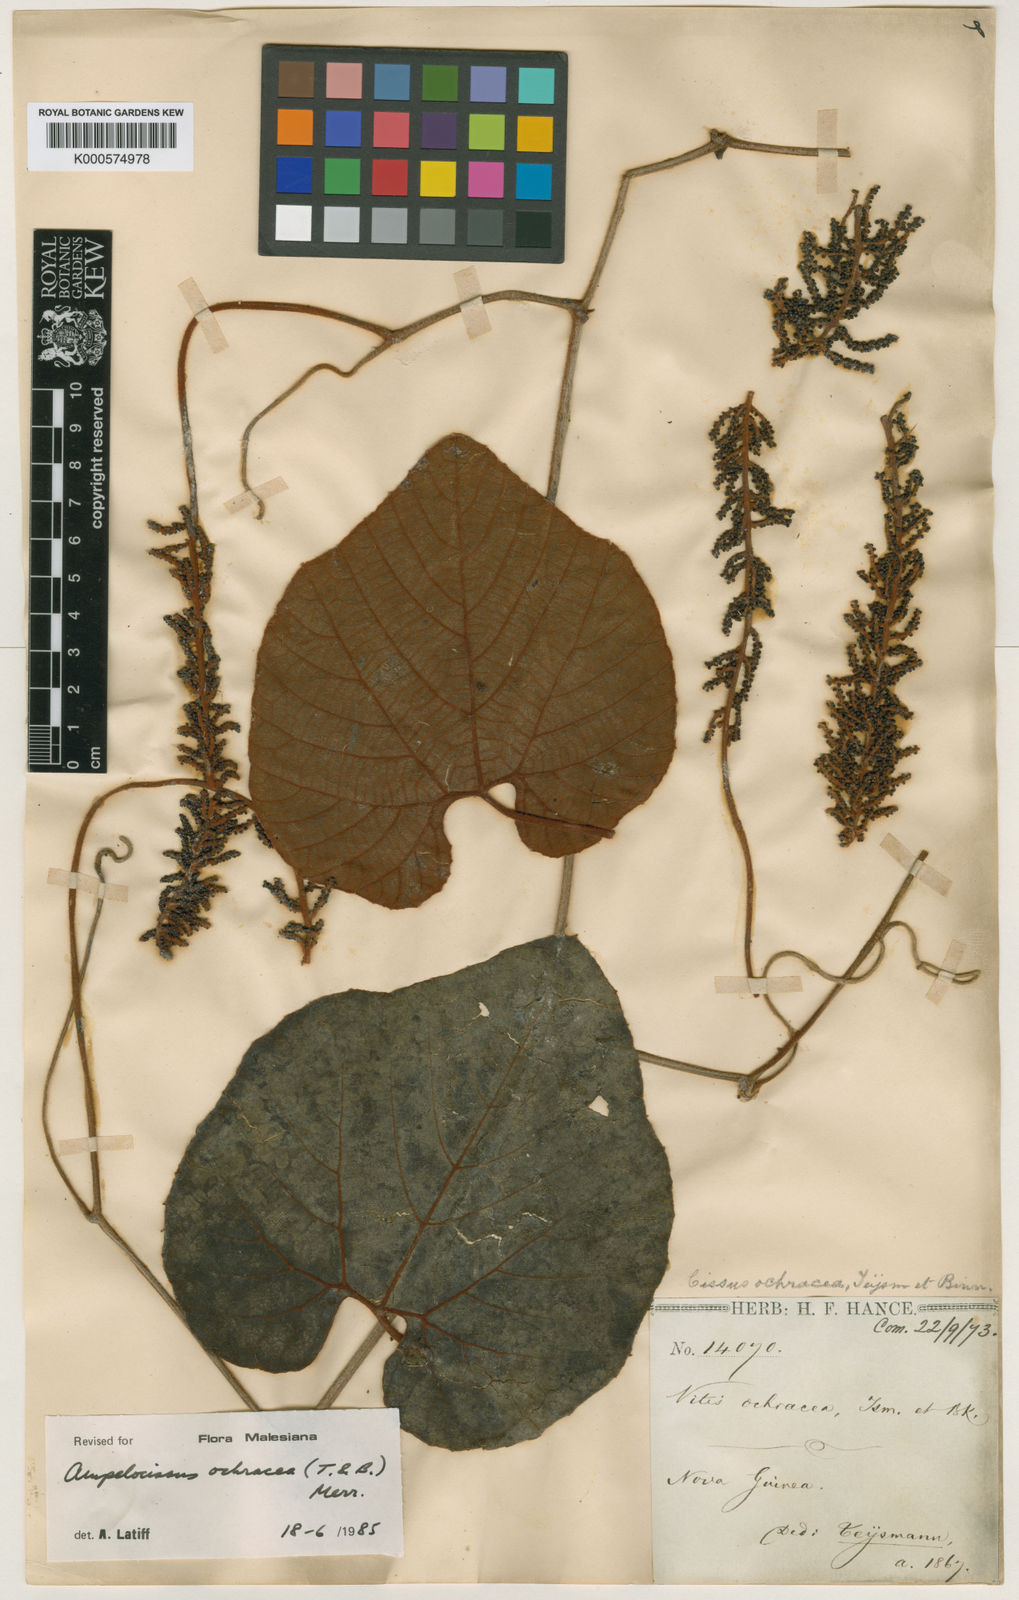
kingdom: Plantae
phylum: Tracheophyta
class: Magnoliopsida
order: Vitales
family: Vitaceae
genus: Ampelocissus
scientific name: Ampelocissus ochracea
